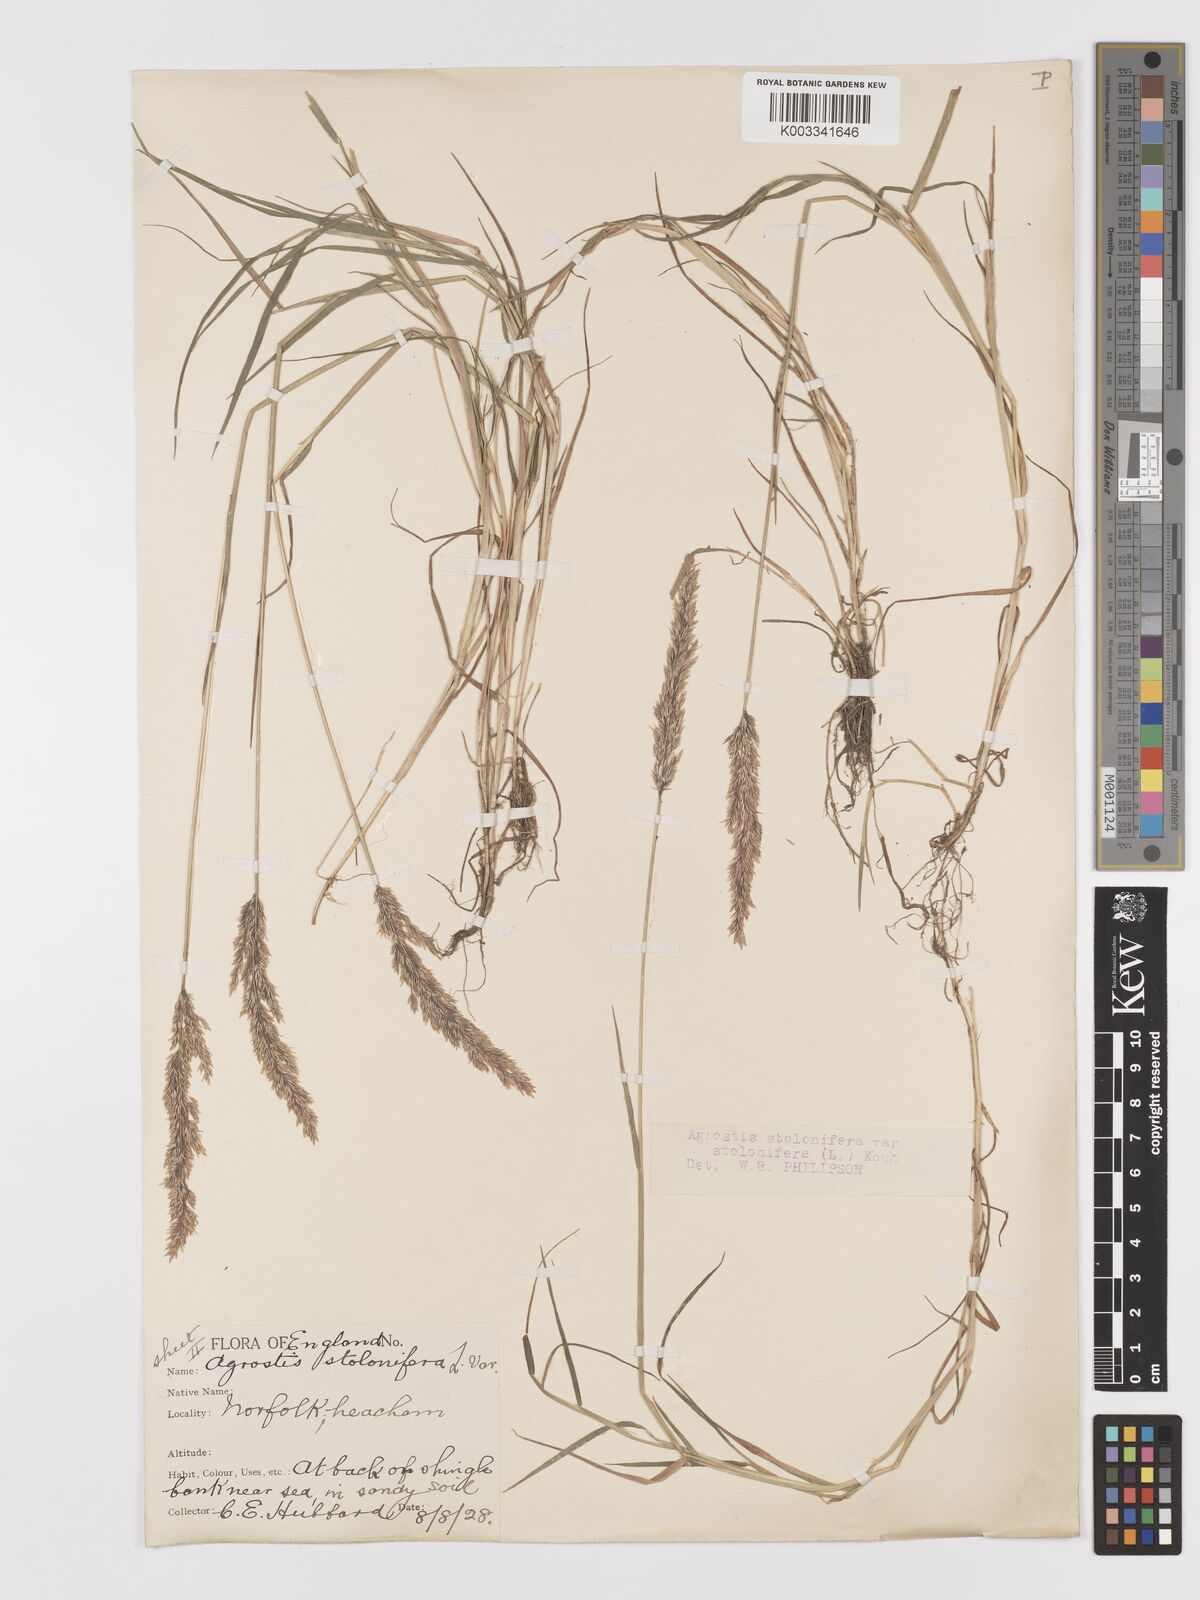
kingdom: Plantae
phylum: Tracheophyta
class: Liliopsida
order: Poales
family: Poaceae
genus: Agrostis
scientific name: Agrostis stolonifera
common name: Creeping bentgrass
